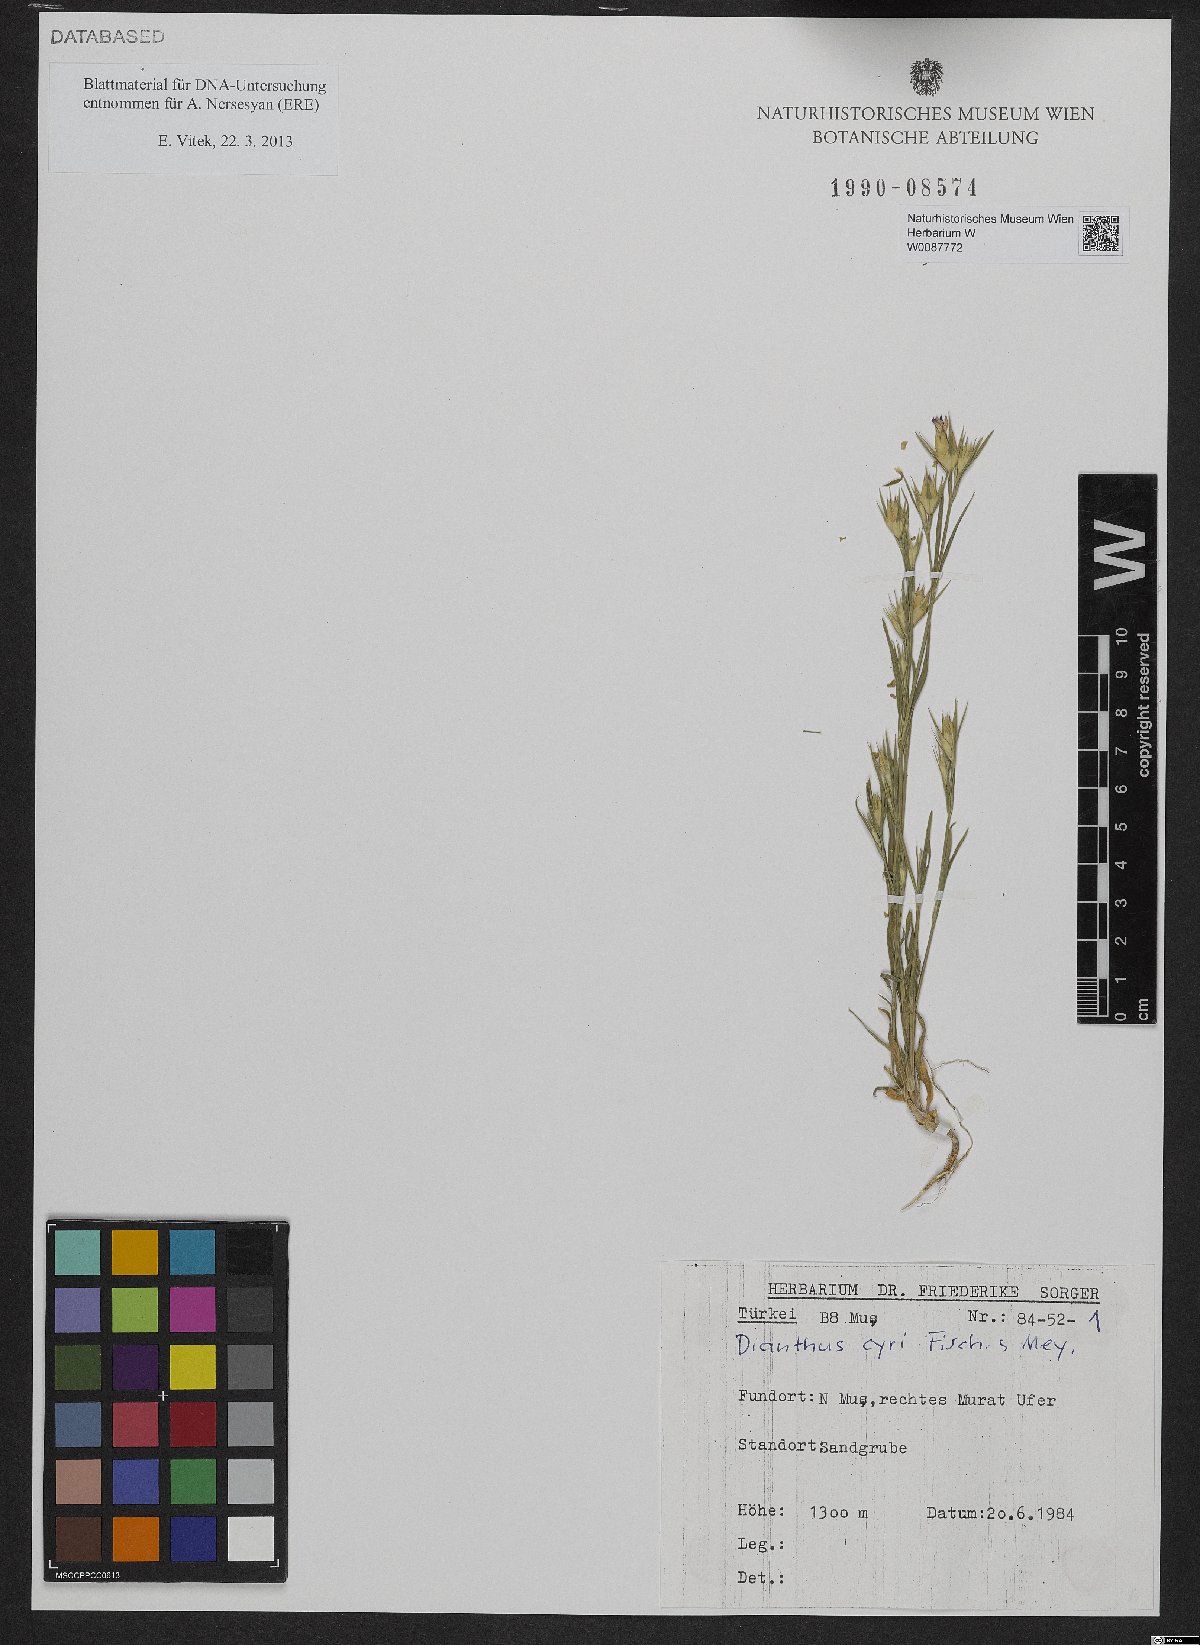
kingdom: Plantae
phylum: Tracheophyta
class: Magnoliopsida
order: Caryophyllales
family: Caryophyllaceae
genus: Dianthus
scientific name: Dianthus cyri
